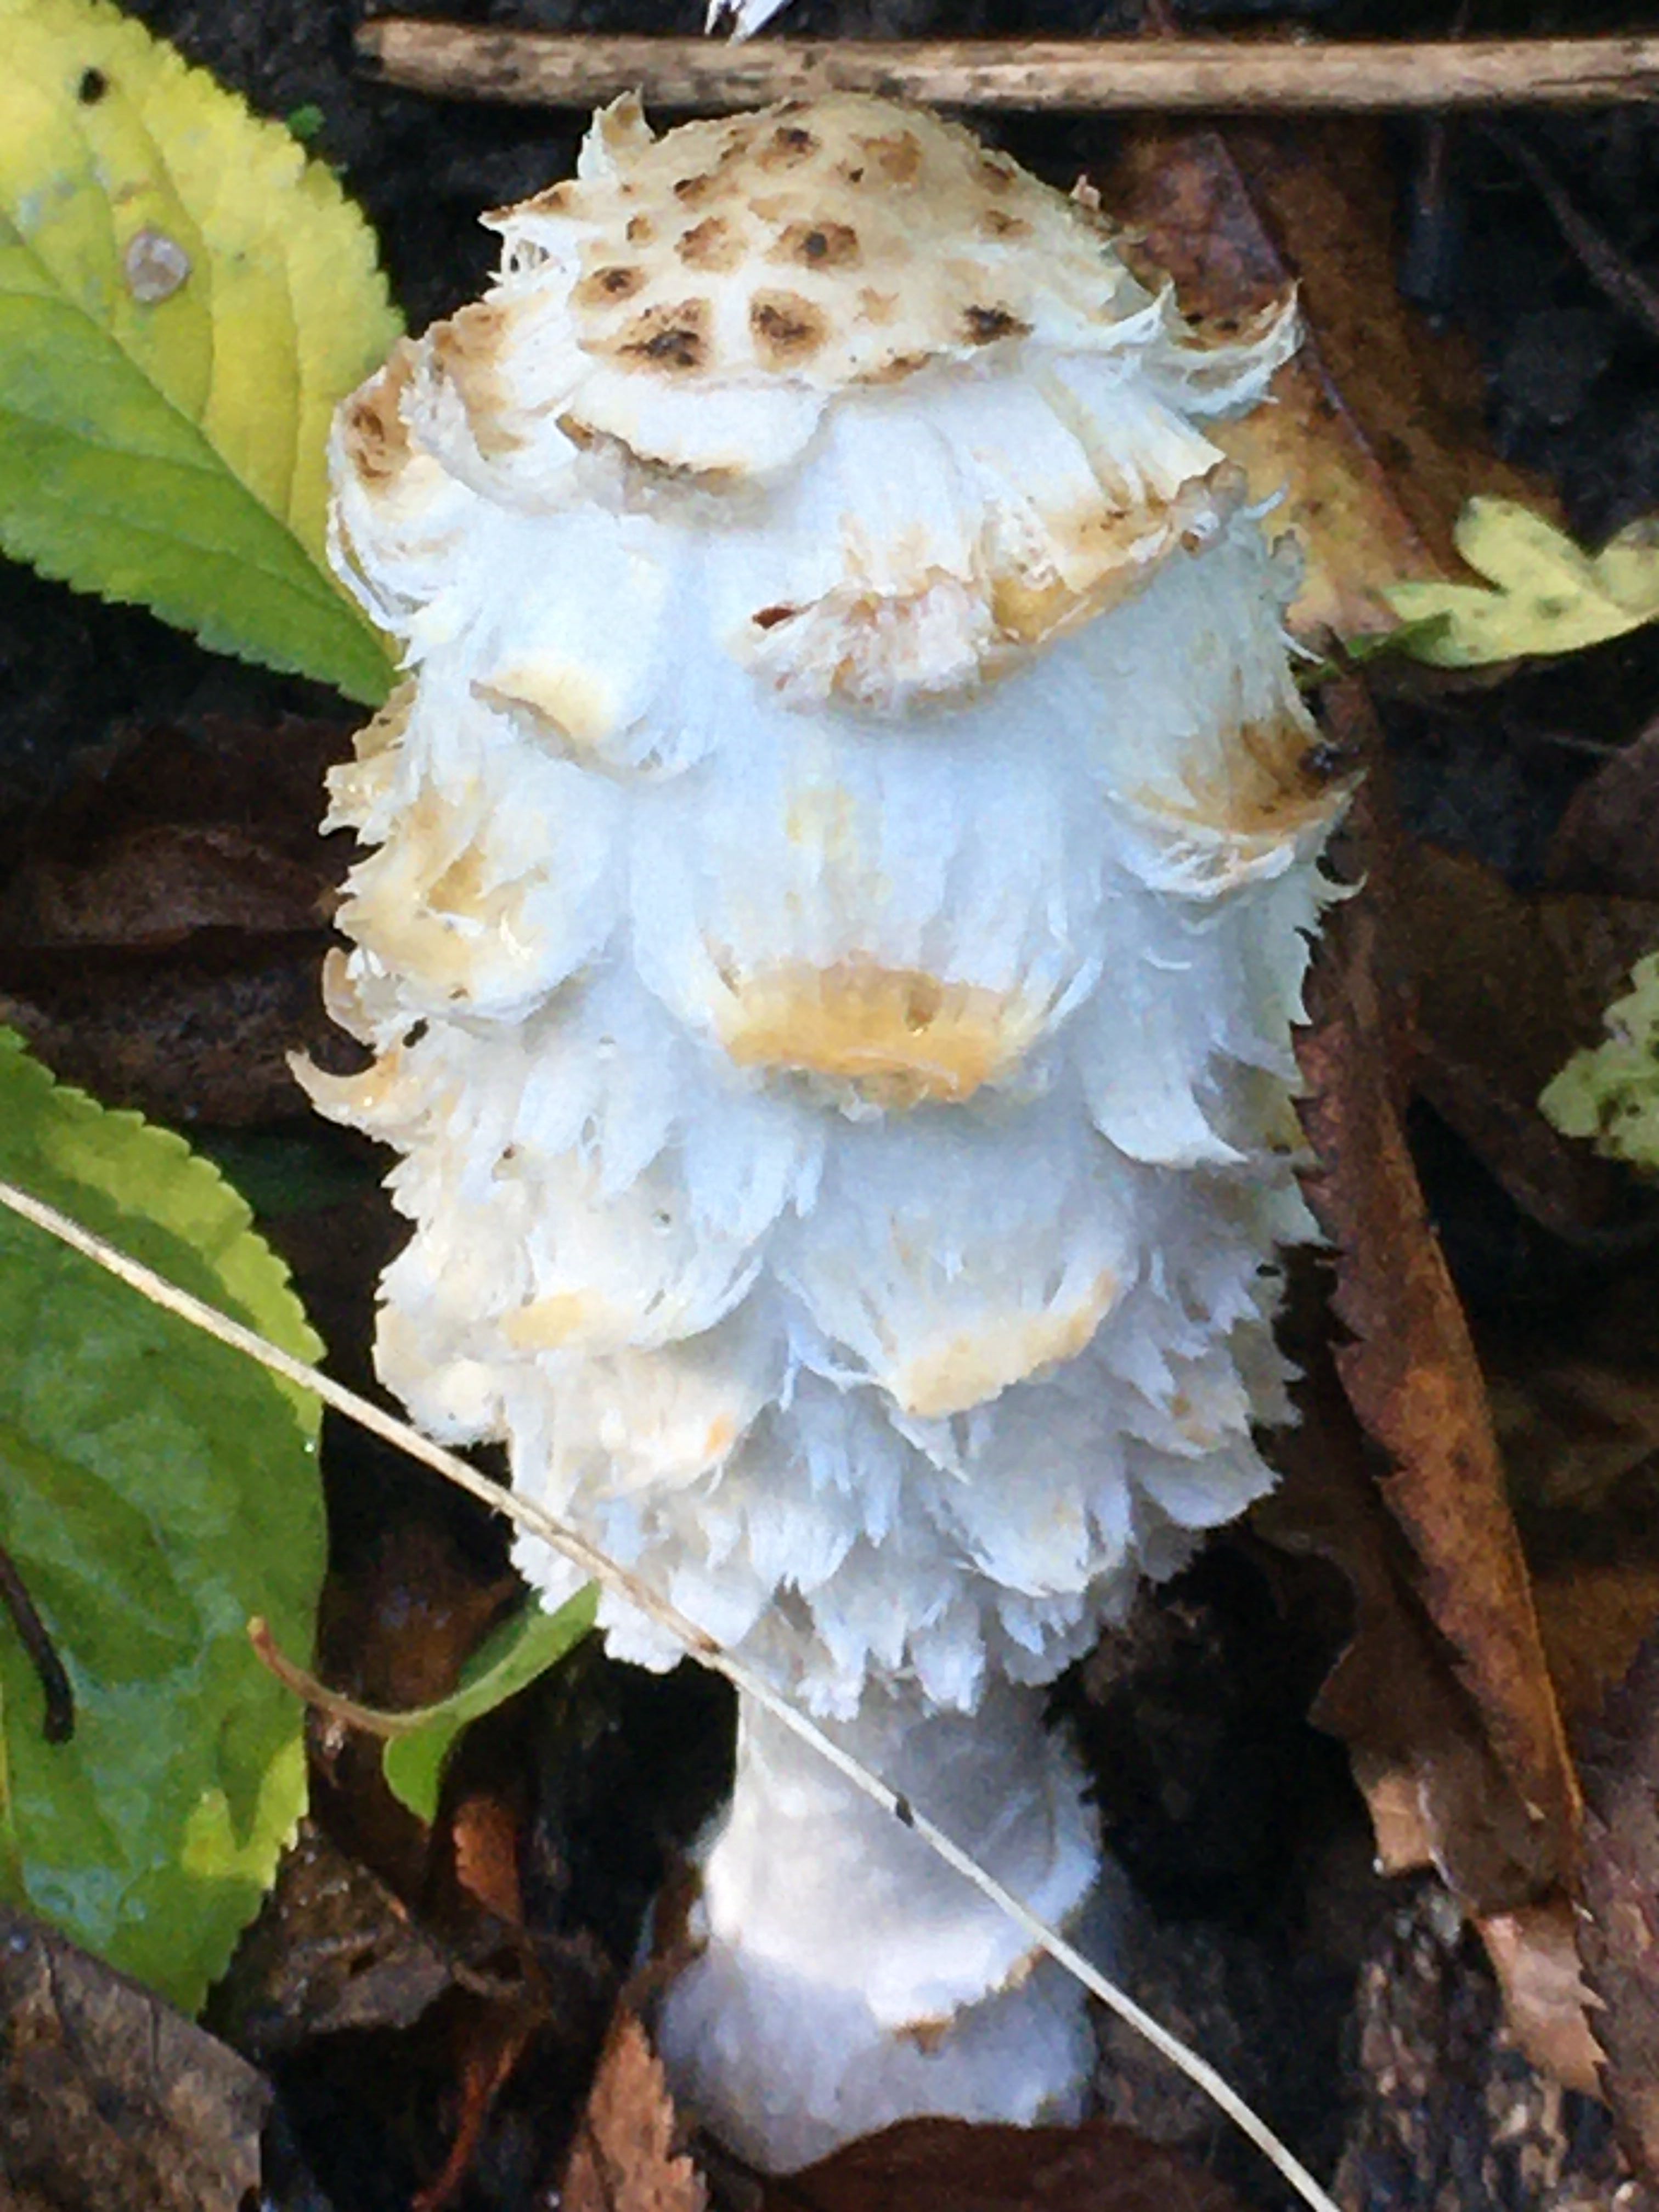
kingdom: Fungi
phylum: Basidiomycota
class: Agaricomycetes
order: Agaricales
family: Agaricaceae
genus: Coprinus
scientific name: Coprinus comatus
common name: stor parykhat
